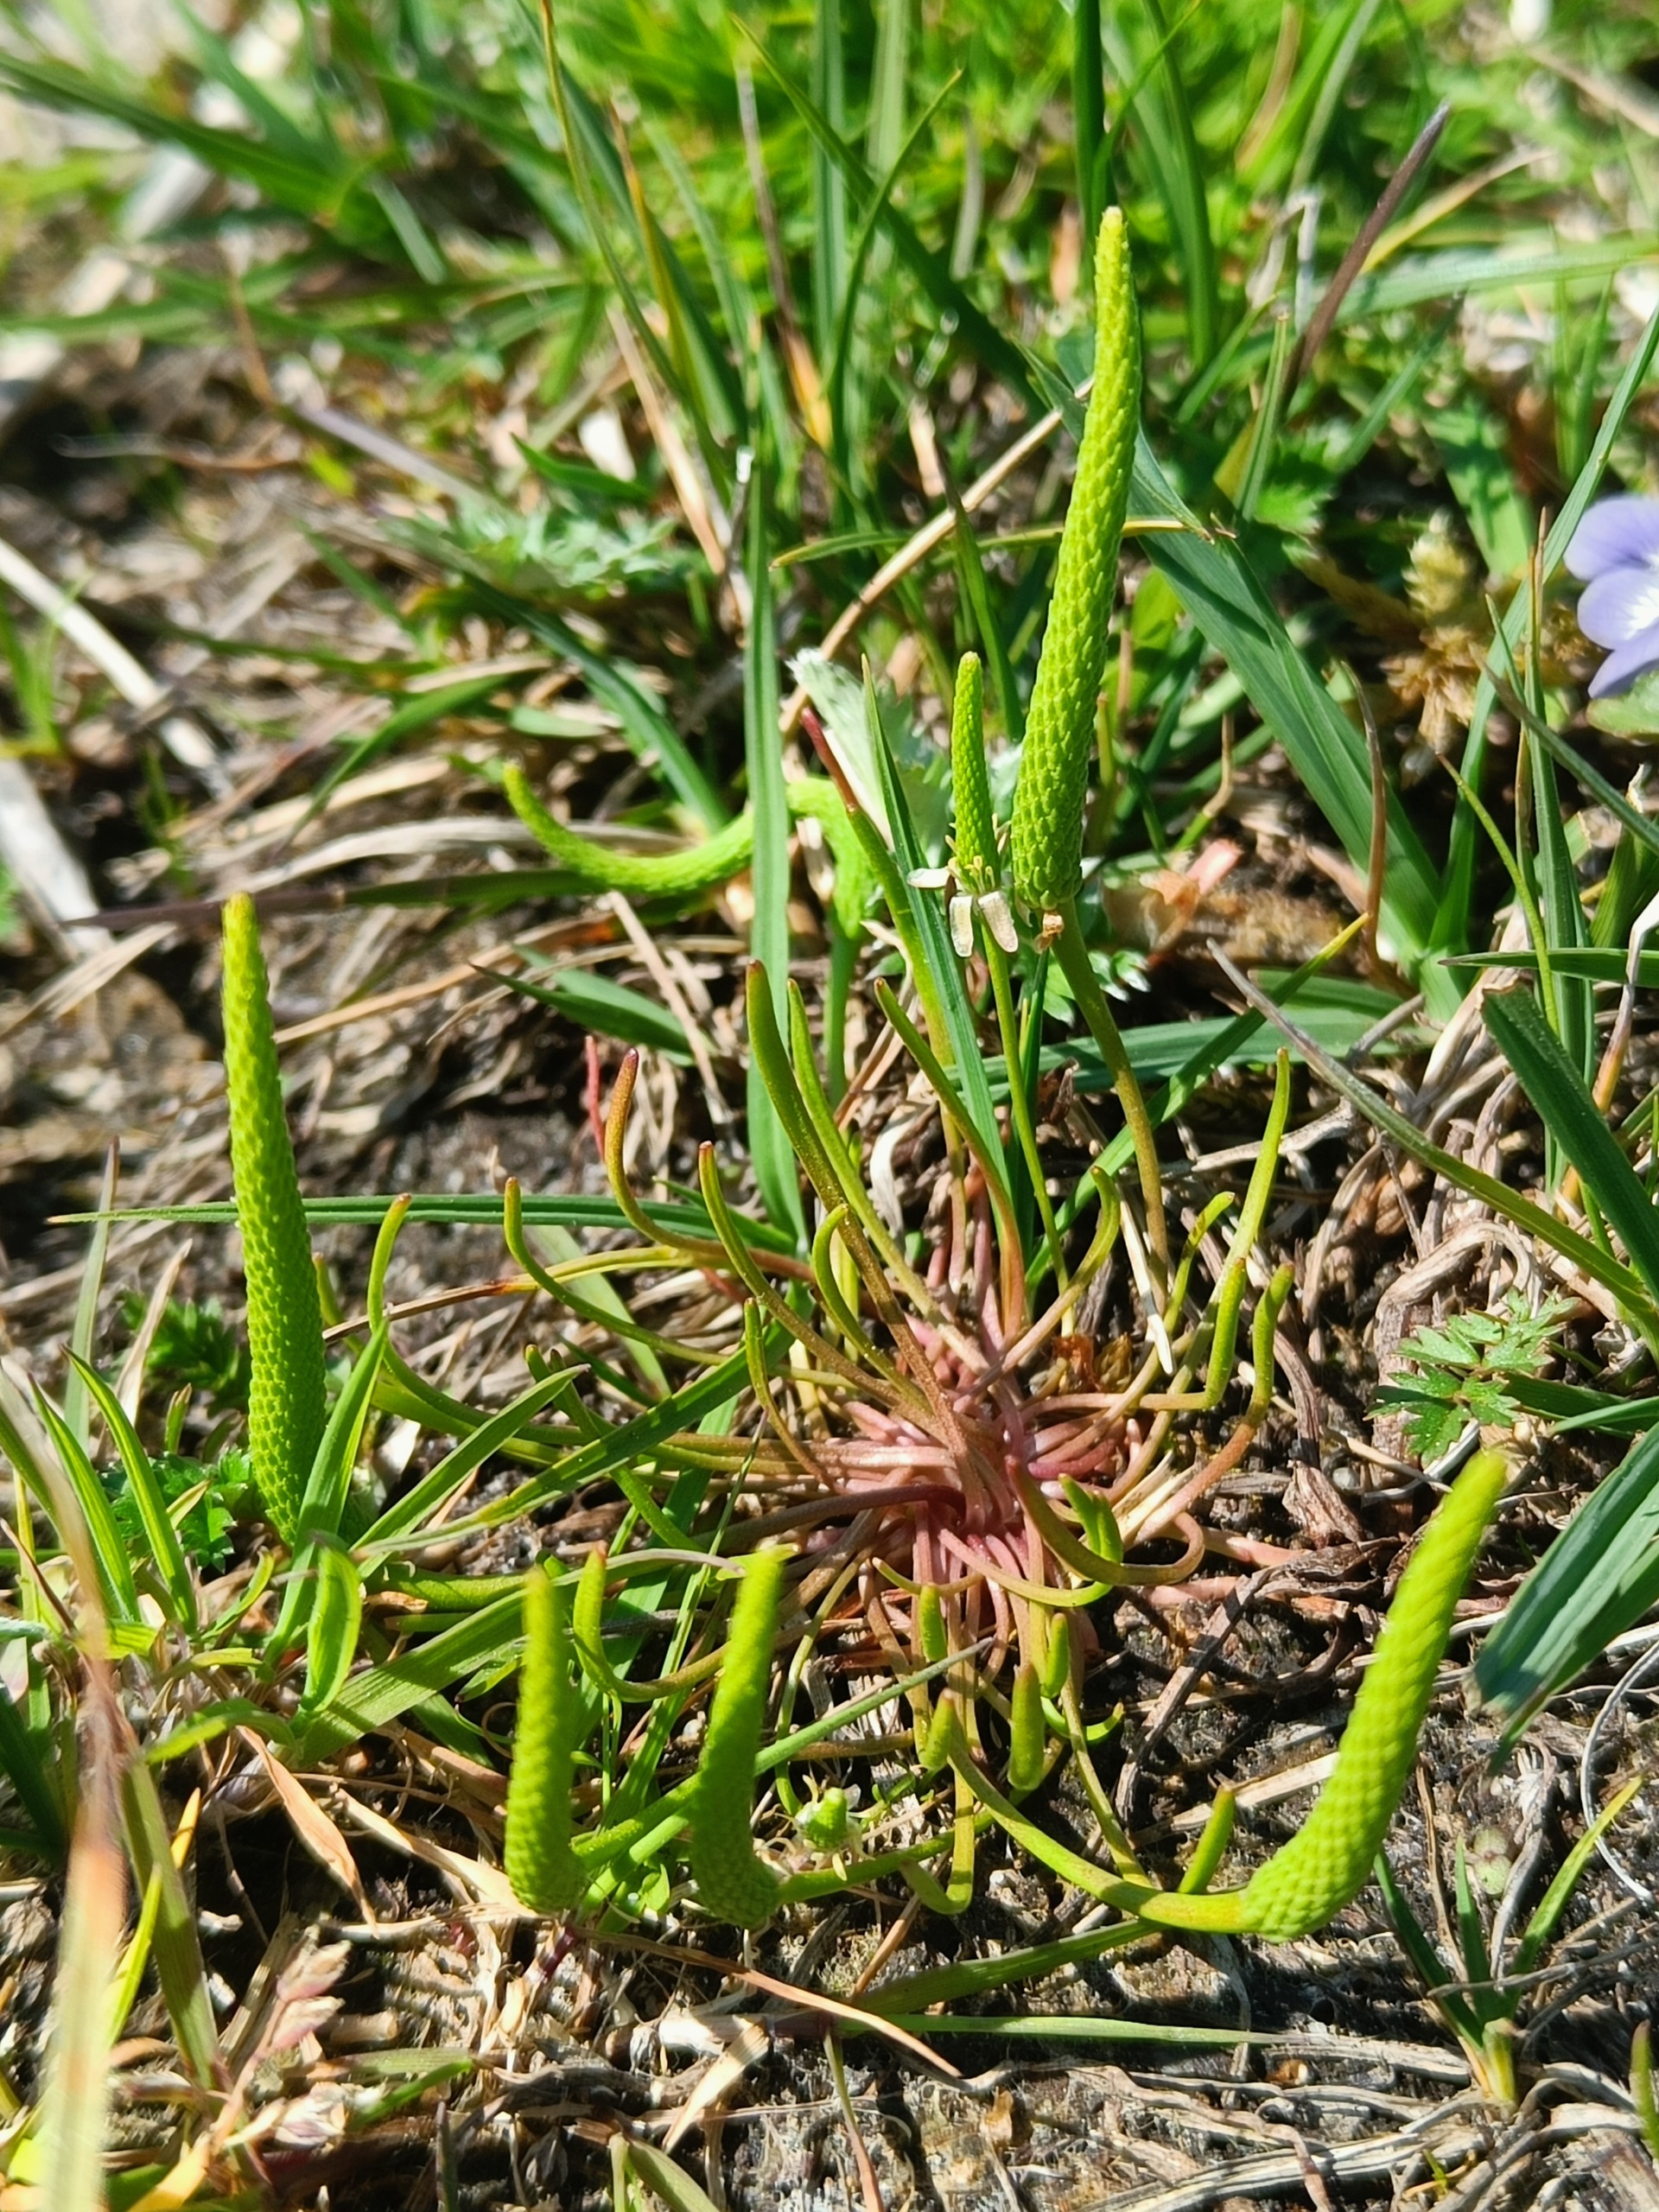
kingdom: Plantae
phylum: Tracheophyta
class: Magnoliopsida
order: Ranunculales
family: Ranunculaceae
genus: Myosurus
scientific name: Myosurus minimus
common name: Musehale
